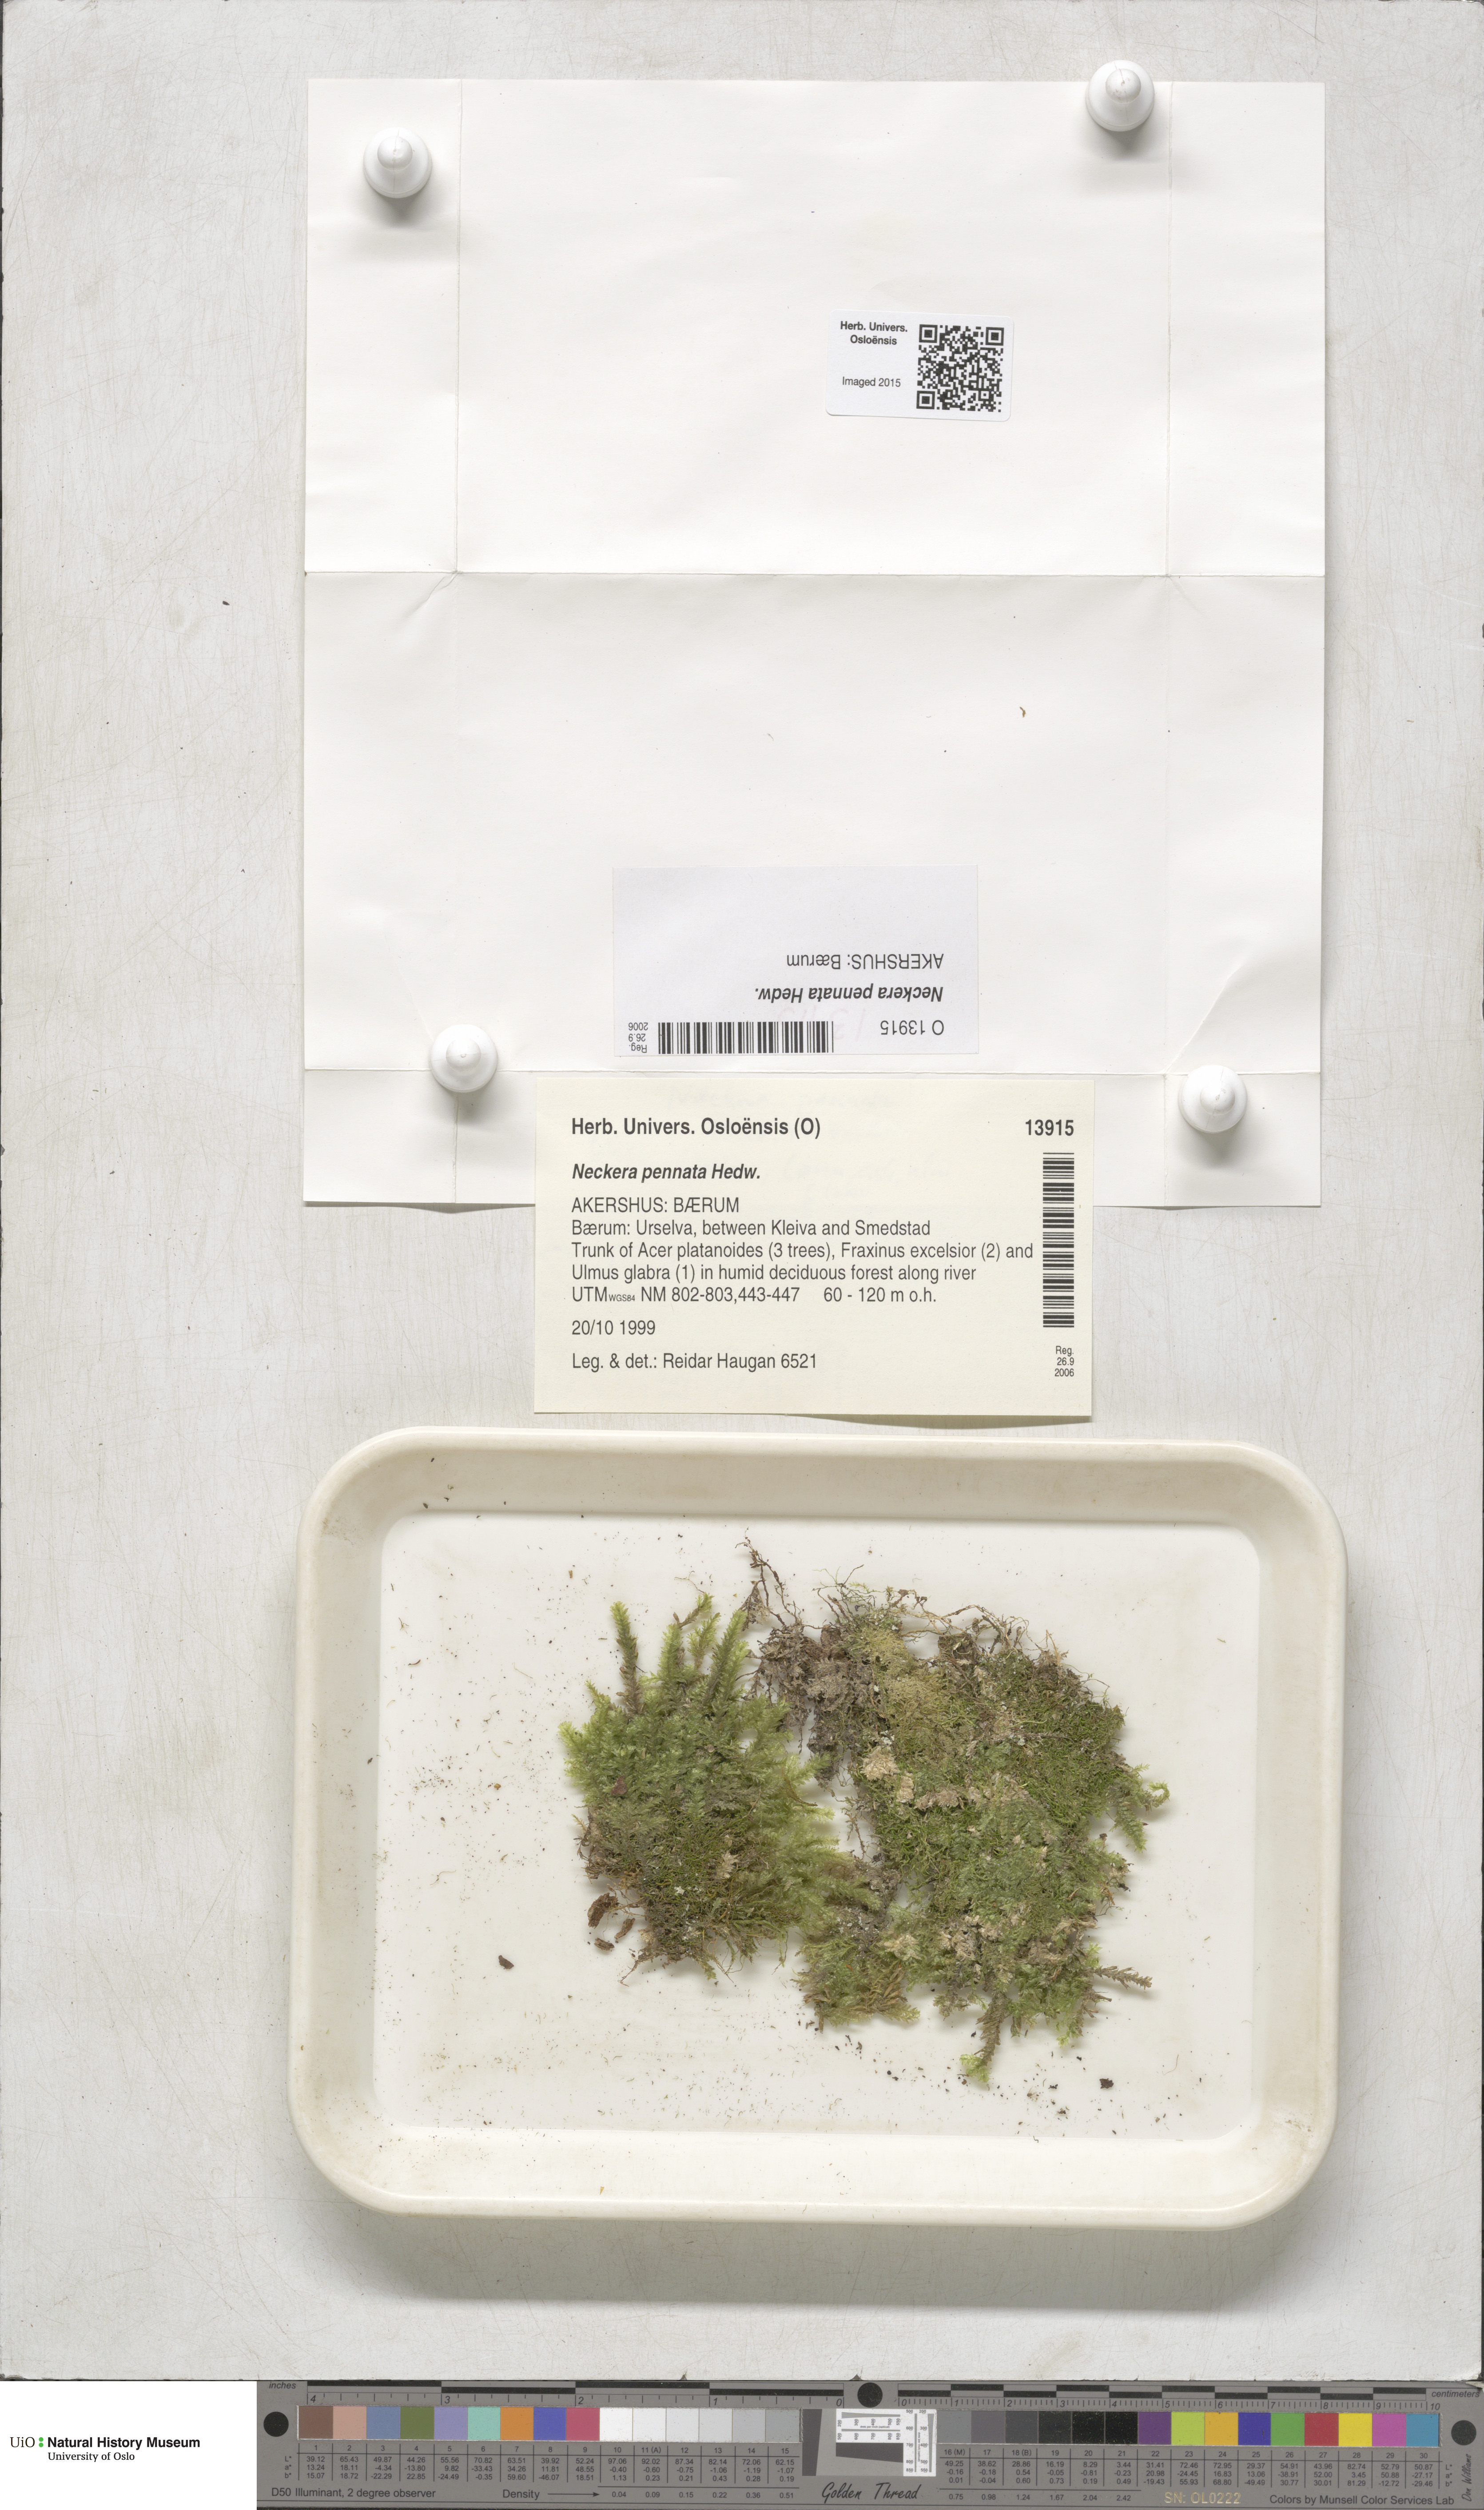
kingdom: Plantae
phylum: Bryophyta
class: Bryopsida
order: Hypnales
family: Neckeraceae
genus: Neckera
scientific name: Neckera pennata
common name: Feathery neckera
